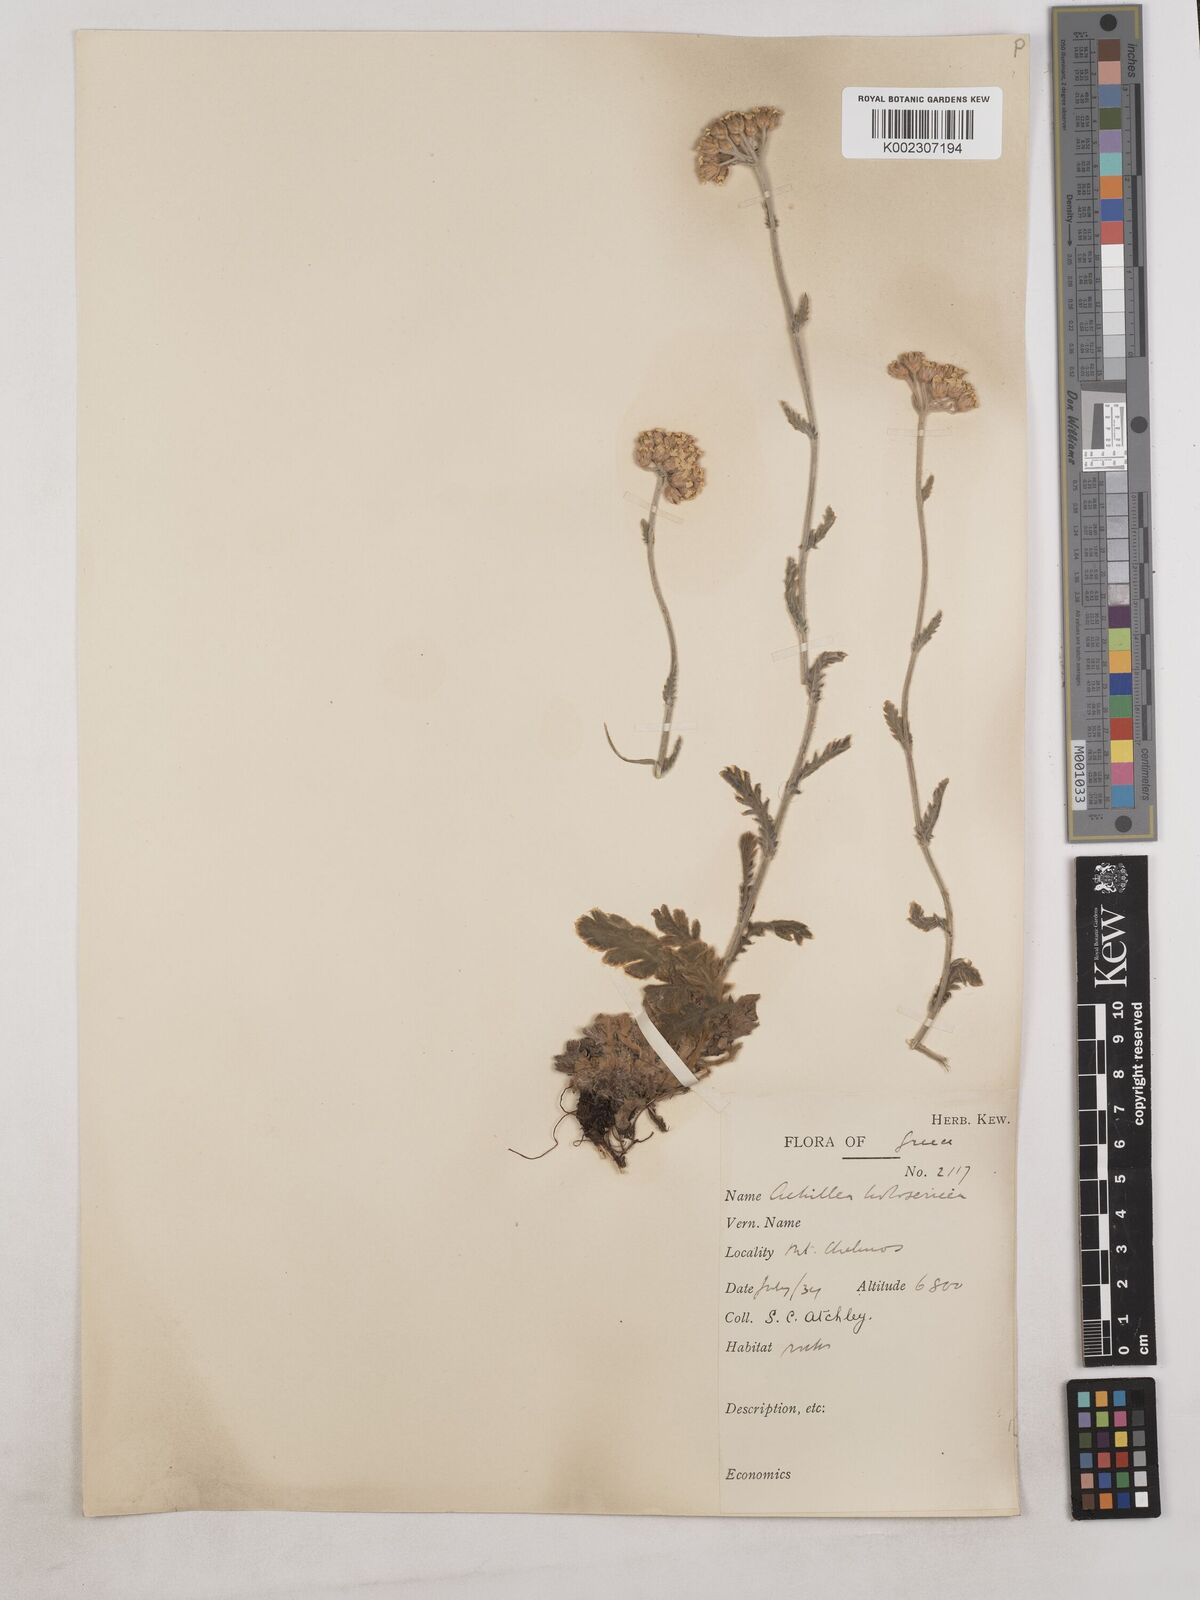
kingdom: Plantae
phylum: Tracheophyta
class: Magnoliopsida
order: Asterales
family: Asteraceae
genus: Achillea
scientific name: Achillea holosericea
